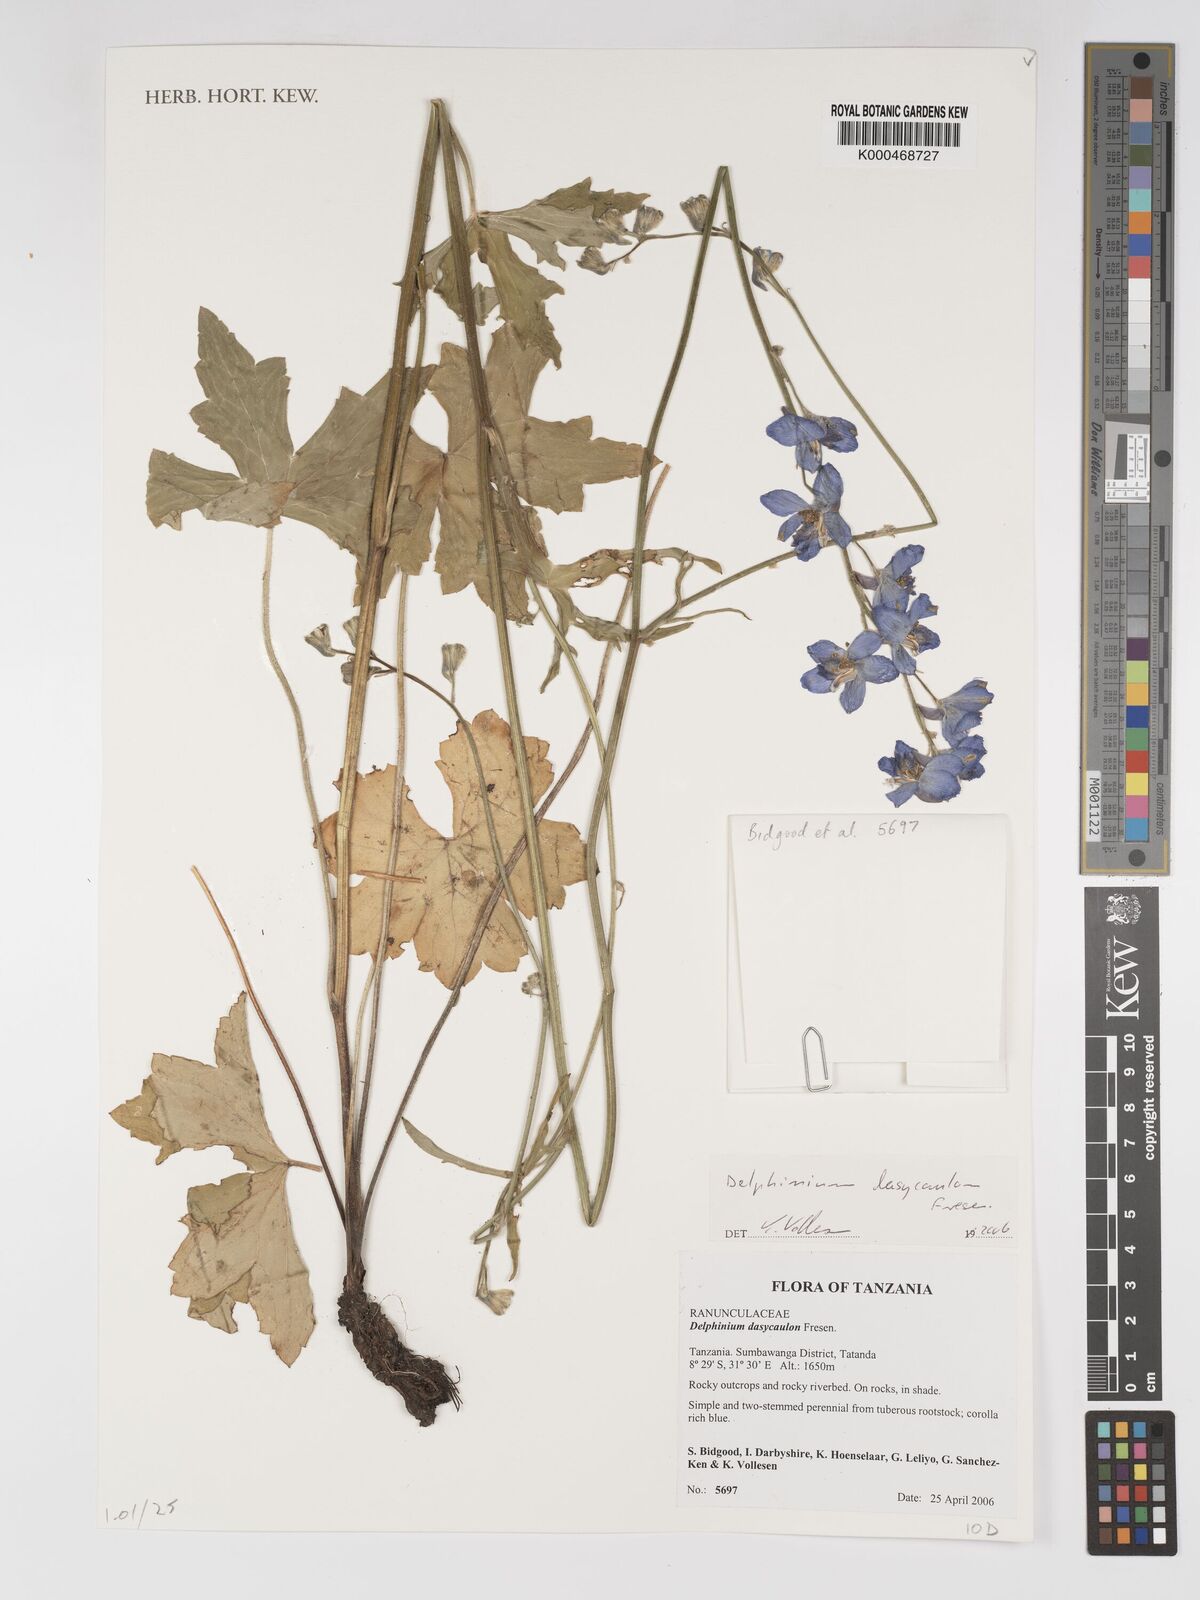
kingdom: Plantae
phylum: Tracheophyta
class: Magnoliopsida
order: Ranunculales
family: Ranunculaceae
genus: Delphinium
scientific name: Delphinium dasycaulon
